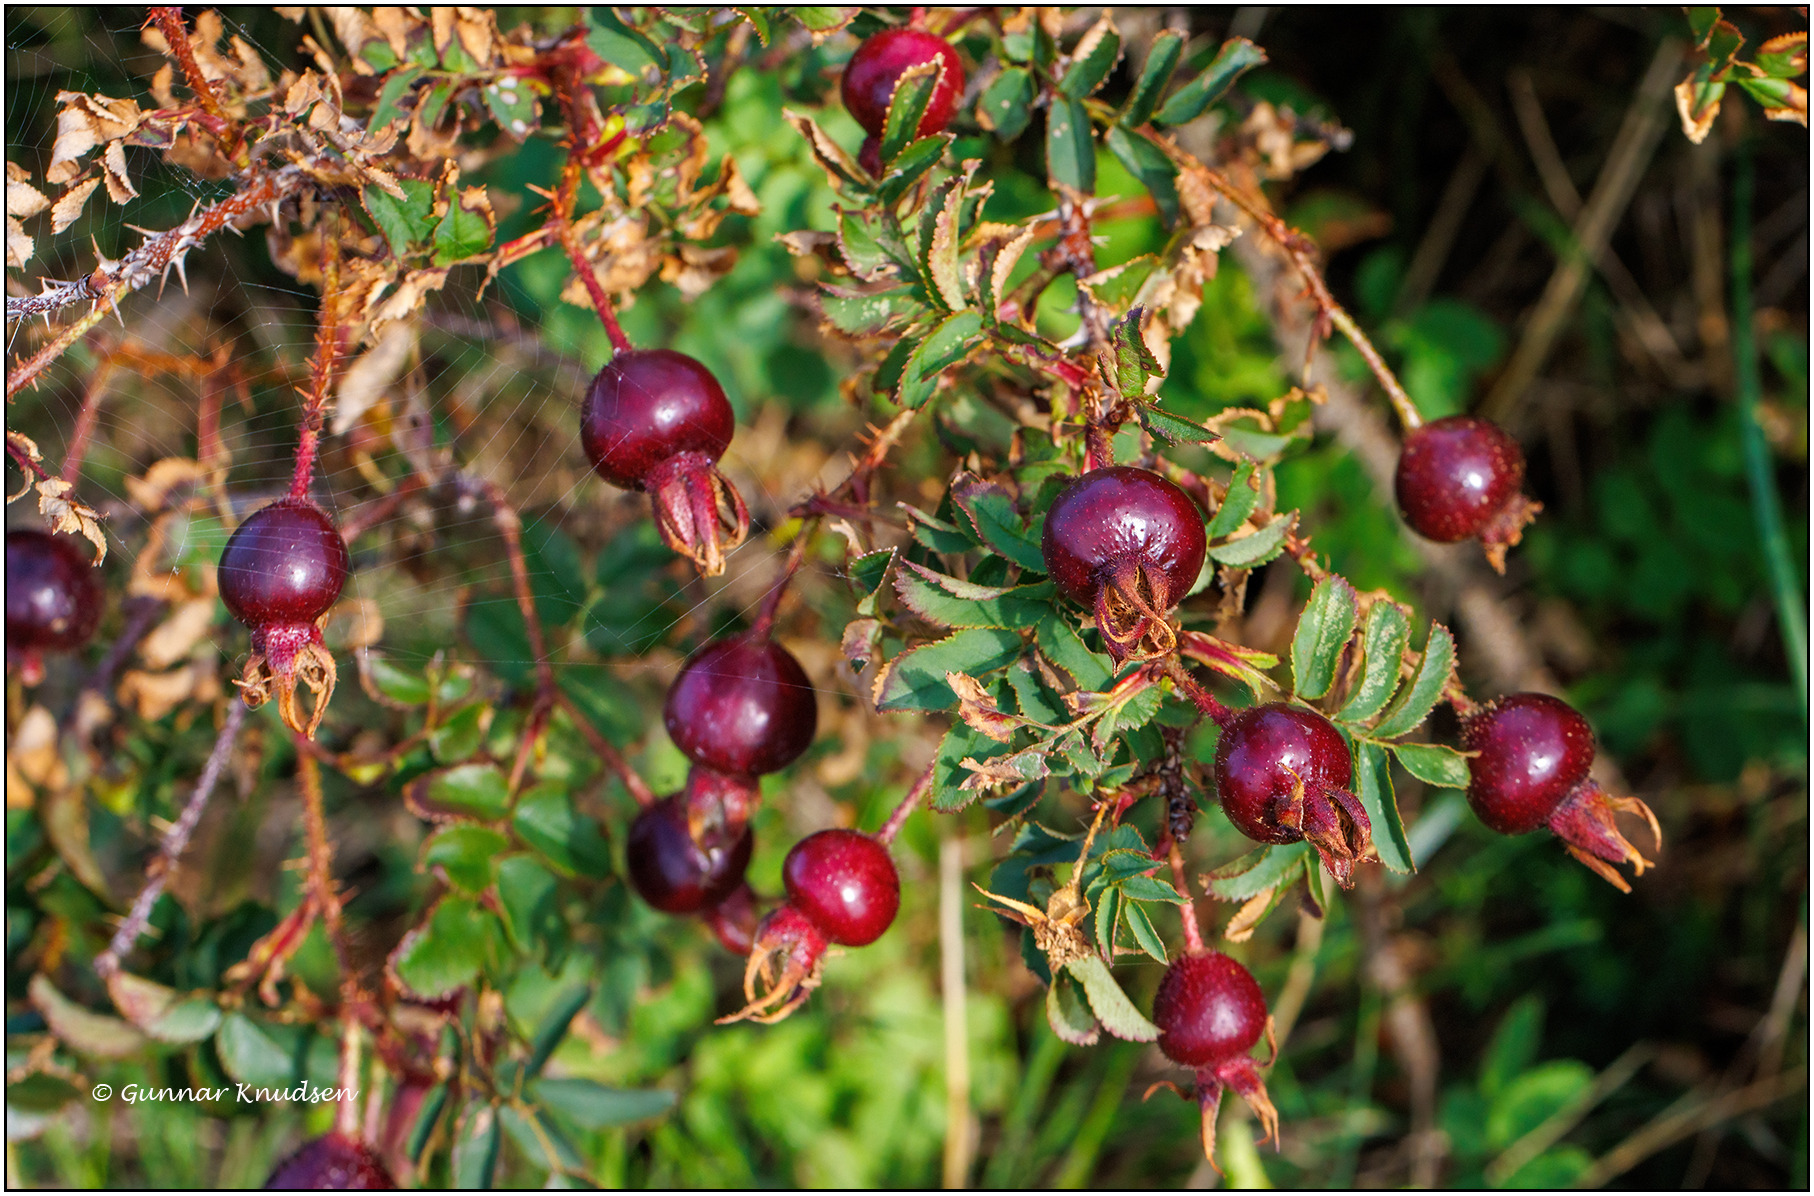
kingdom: Plantae
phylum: Tracheophyta
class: Magnoliopsida
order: Rosales
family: Rosaceae
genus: Rosa
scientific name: Rosa spinosissima
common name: Klit-rose
